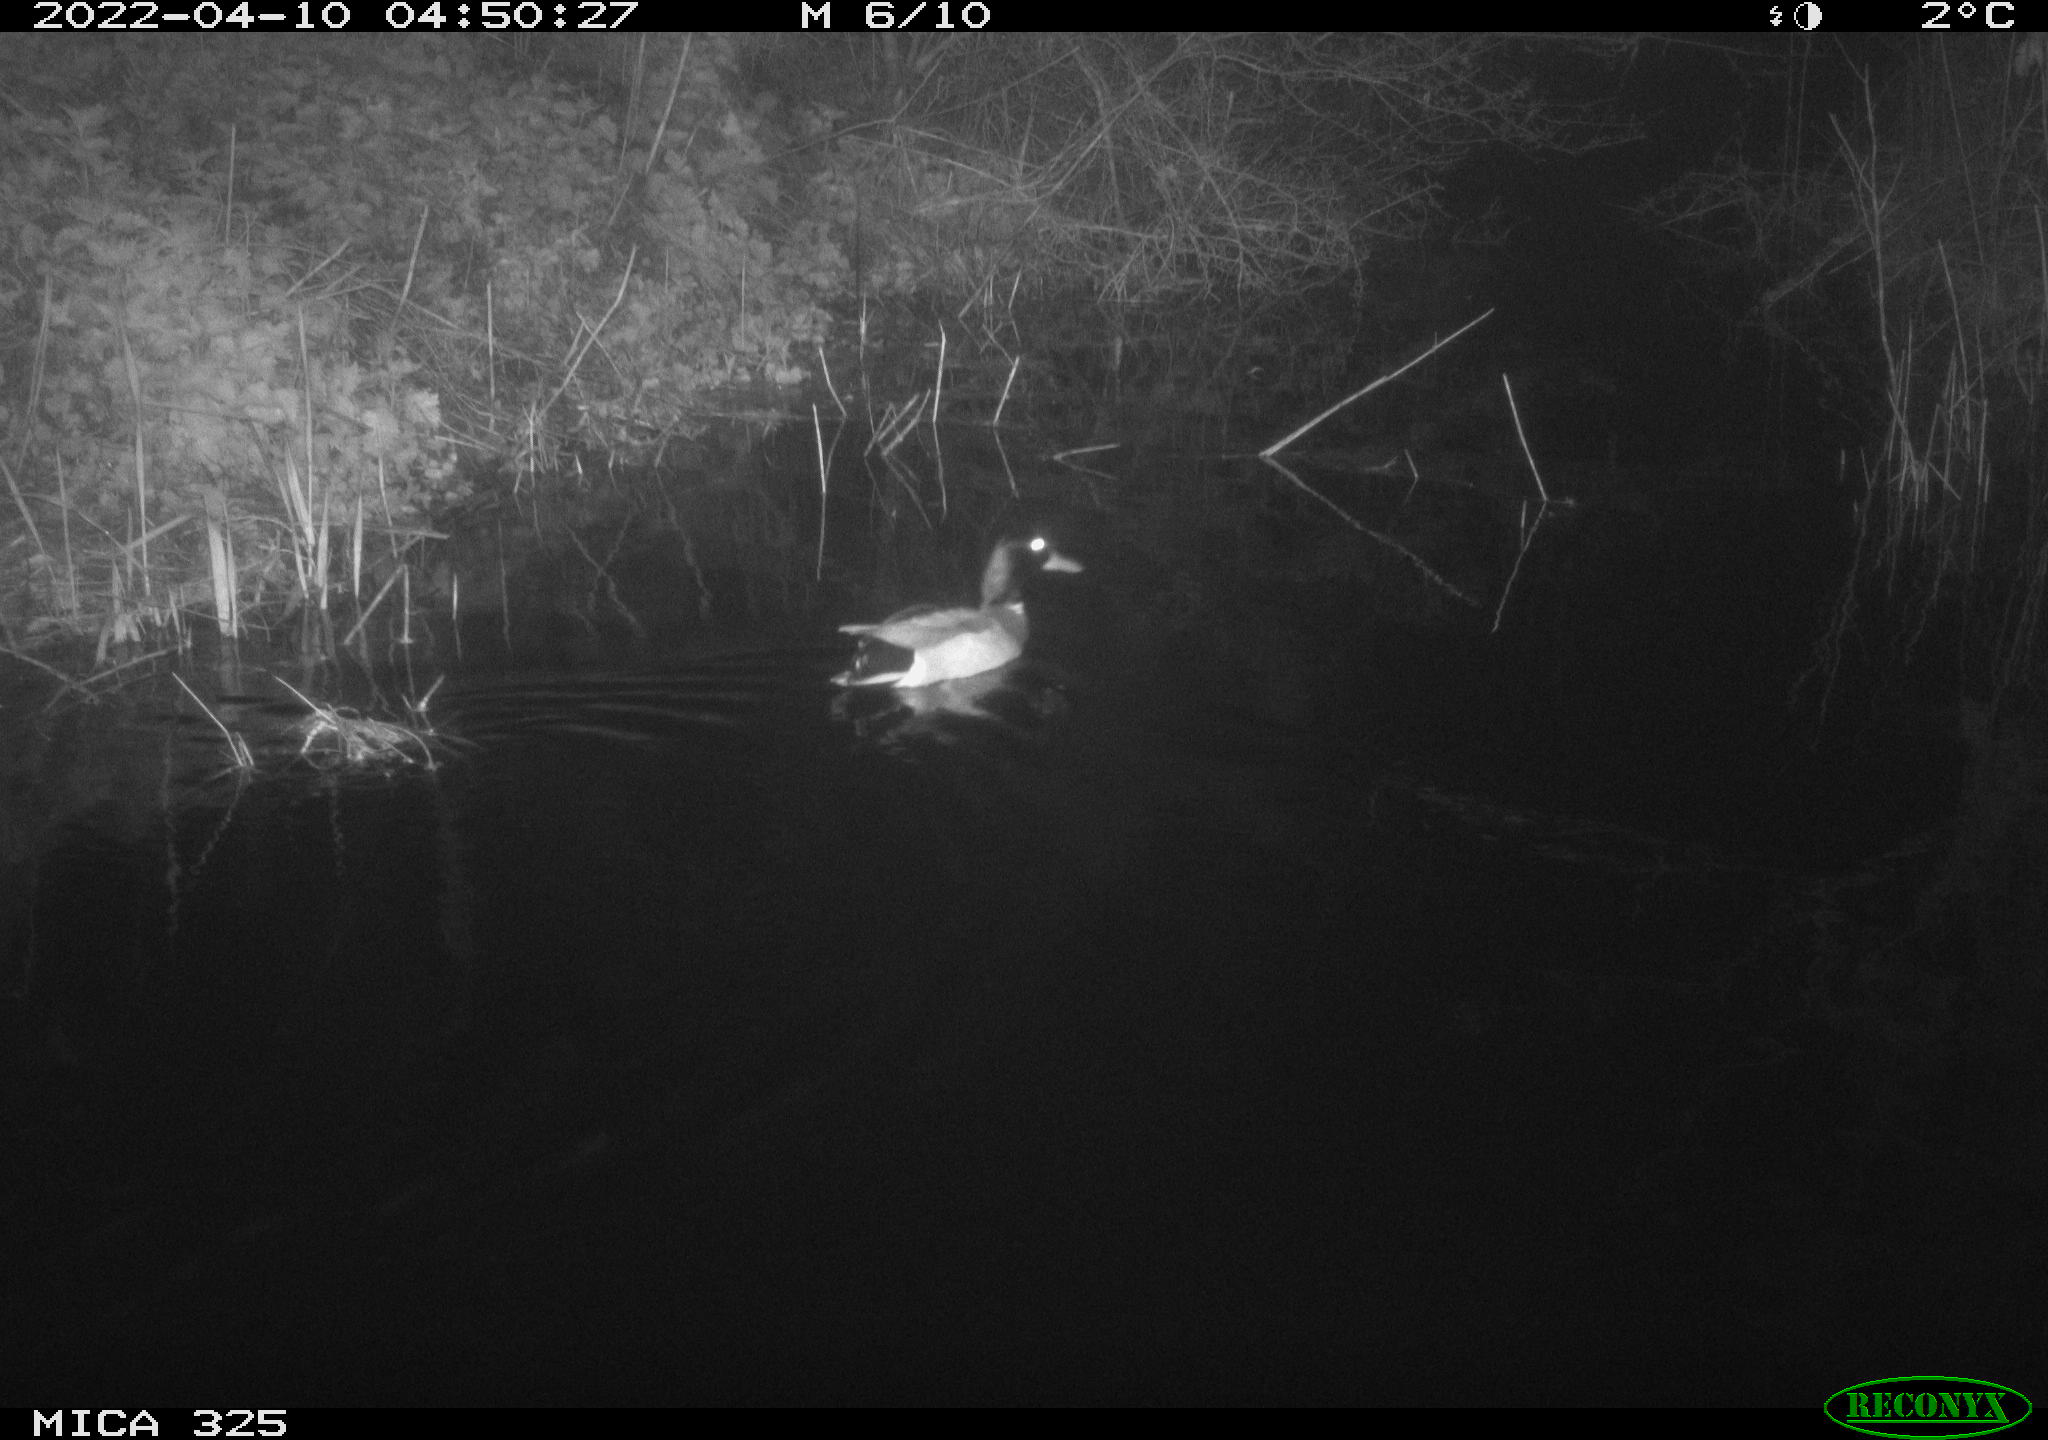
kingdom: Animalia
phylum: Chordata
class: Aves
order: Anseriformes
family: Anatidae
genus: Anas
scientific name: Anas platyrhynchos
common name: Mallard
